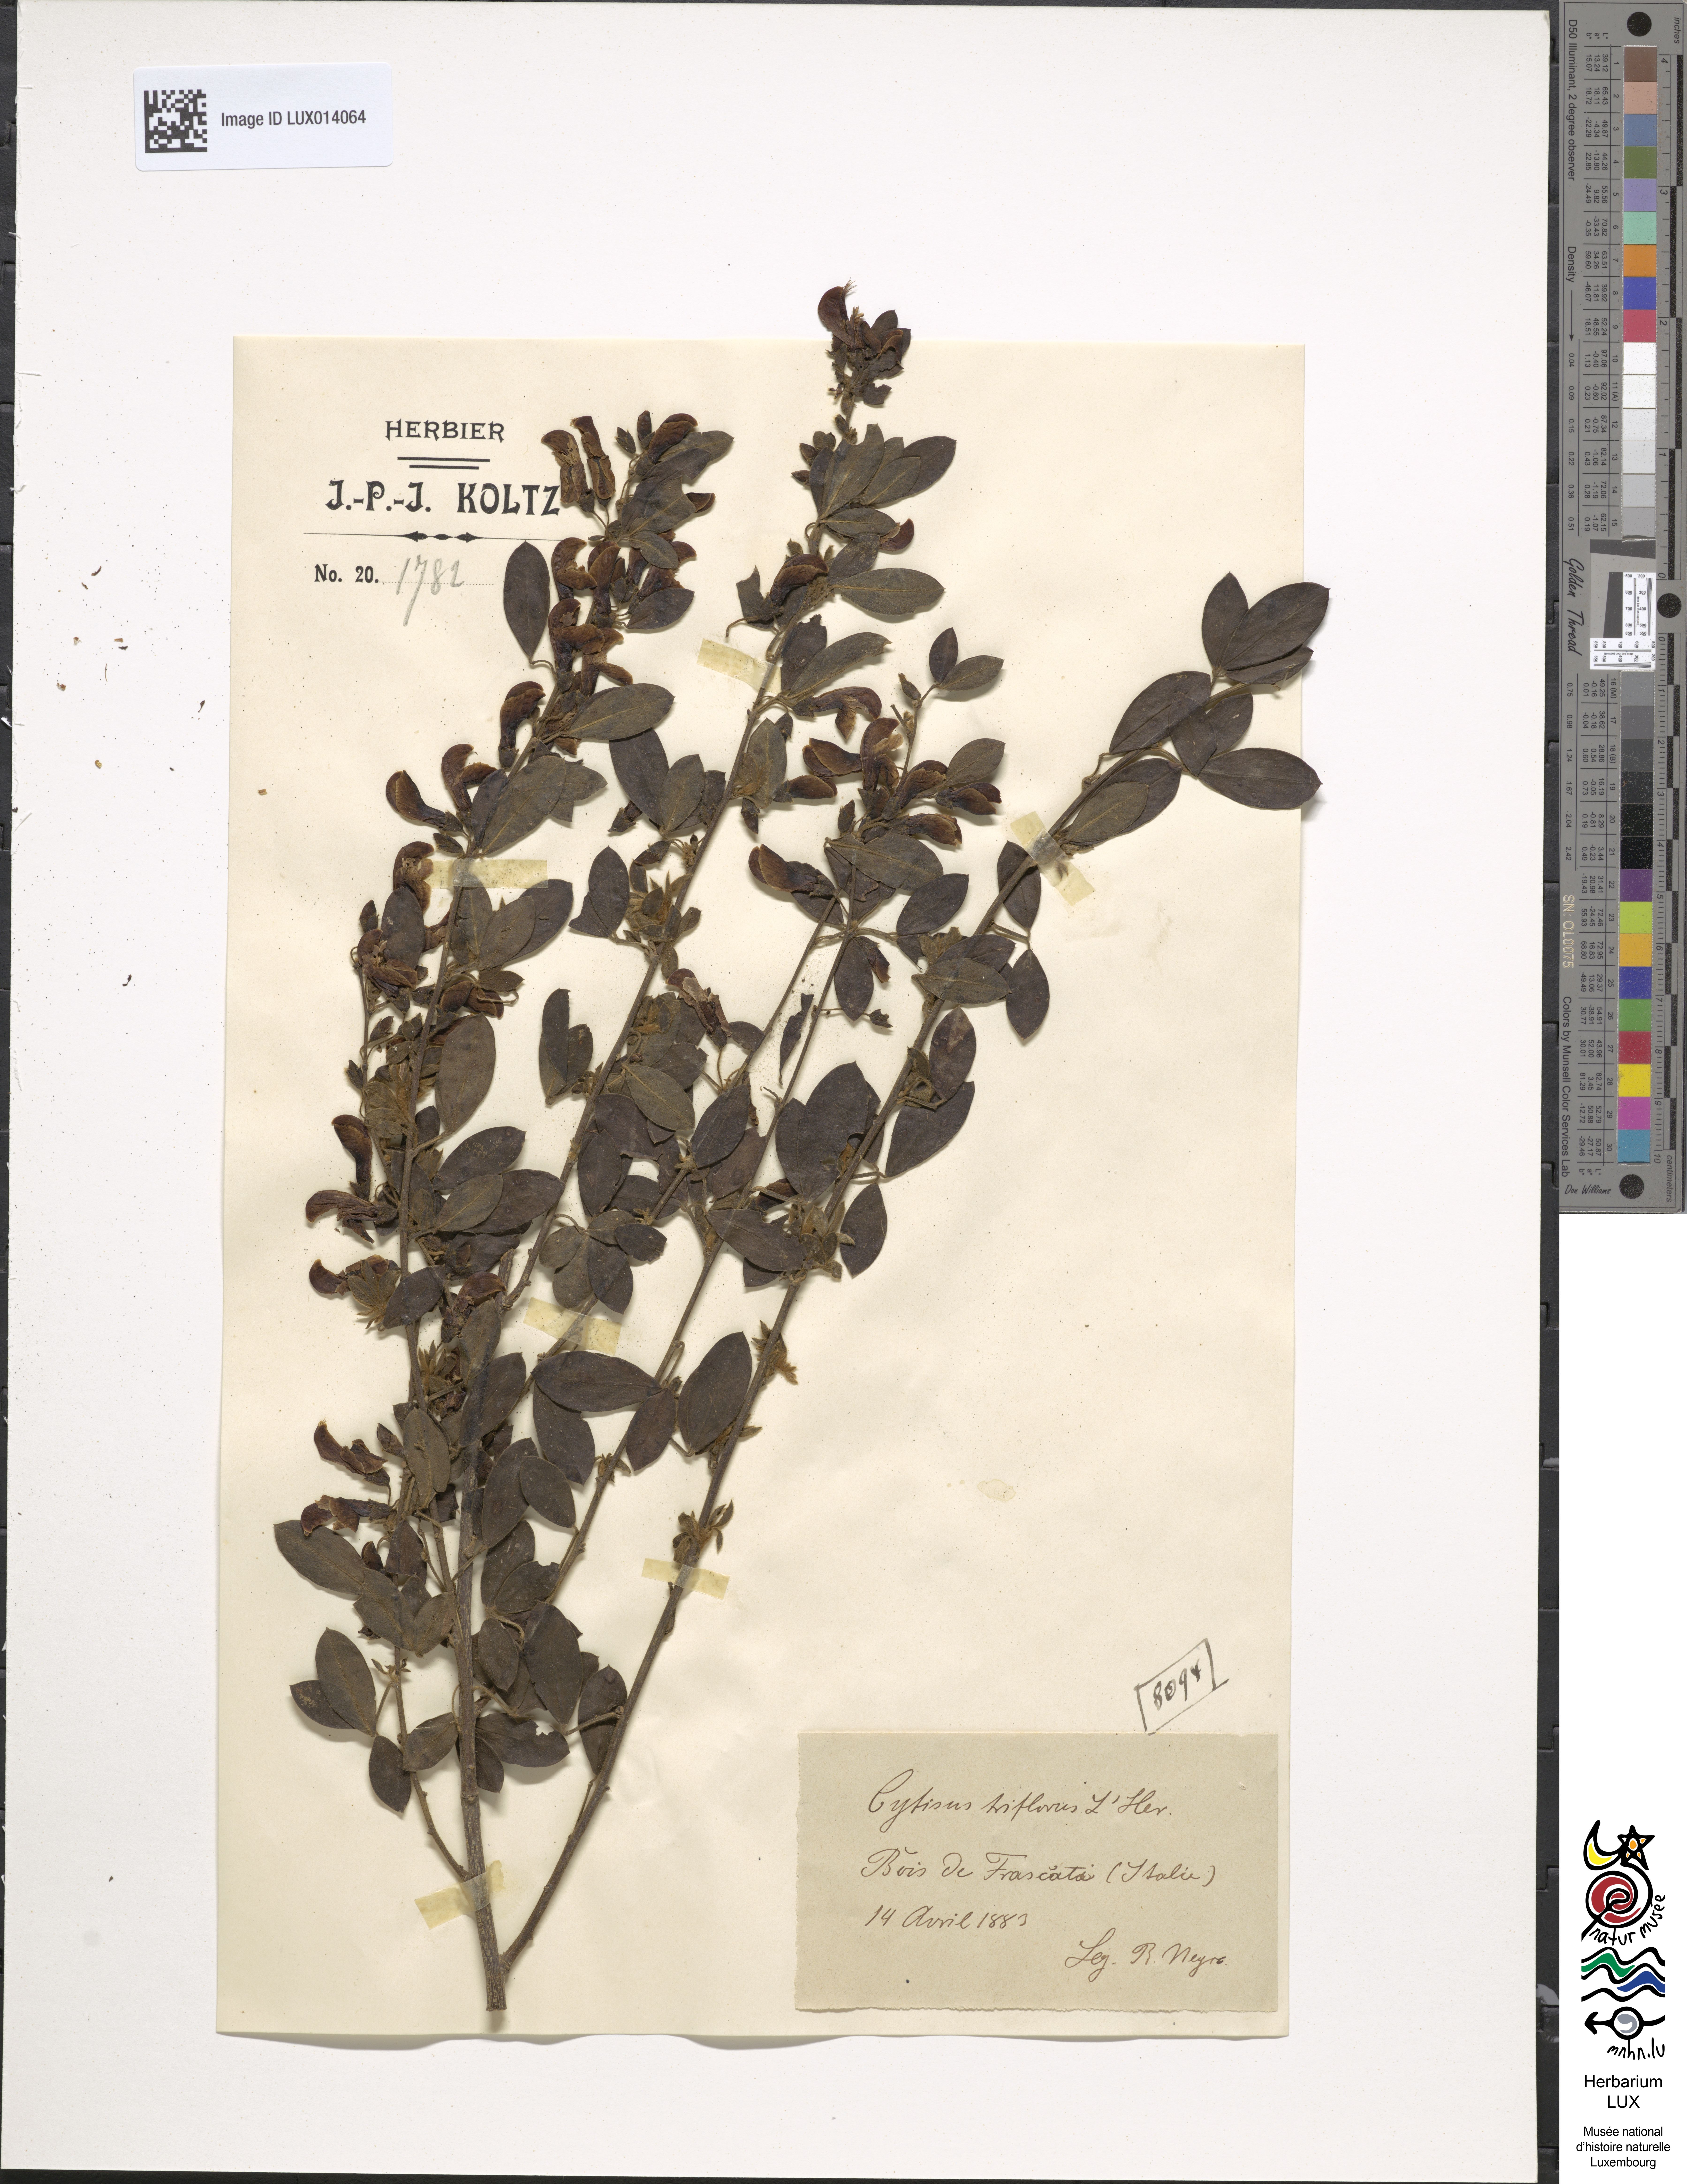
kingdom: Plantae
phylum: Tracheophyta
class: Magnoliopsida
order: Fabales
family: Fabaceae
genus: Chamaecytisus
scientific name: Chamaecytisus ratisbonensis
